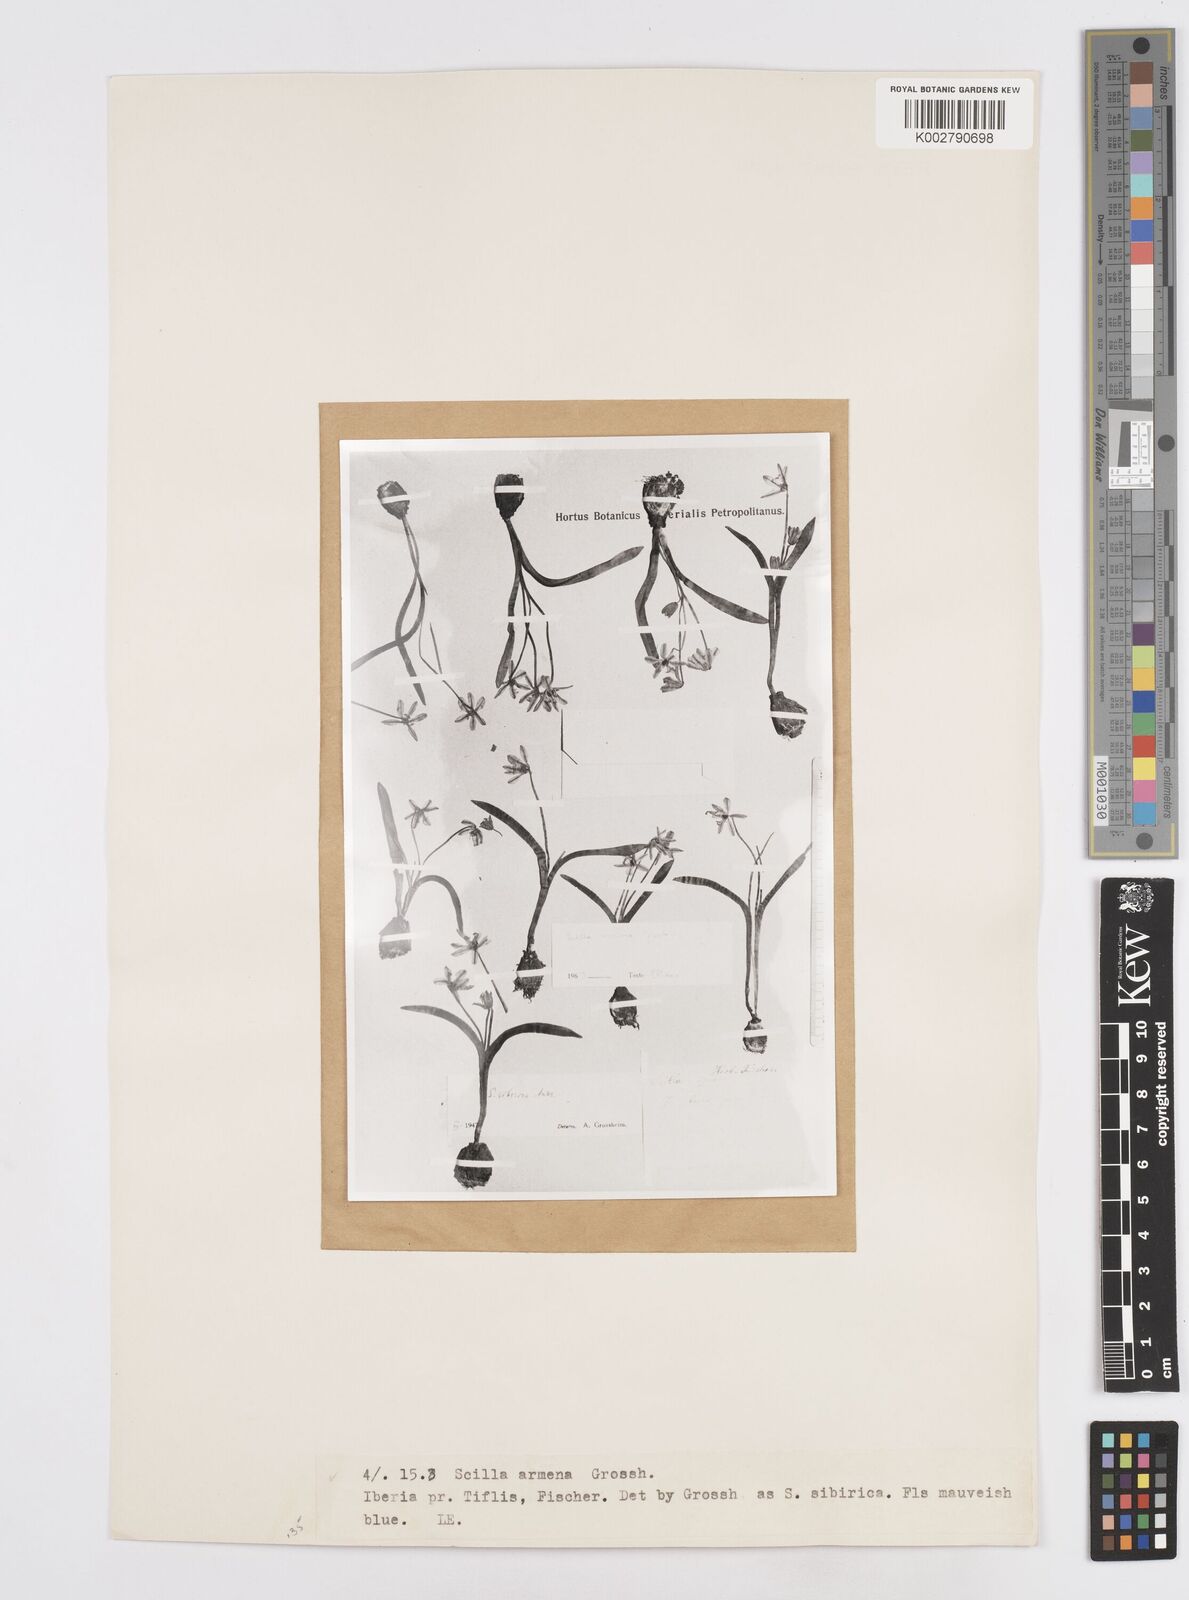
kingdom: Plantae
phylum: Tracheophyta
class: Liliopsida
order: Asparagales
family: Asparagaceae
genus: Scilla
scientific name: Scilla siberica
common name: Siberian squill
